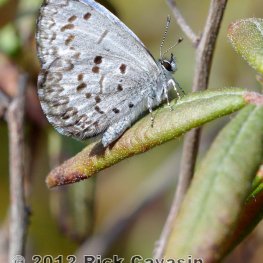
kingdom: Animalia
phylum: Arthropoda
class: Insecta
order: Lepidoptera
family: Lycaenidae
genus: Celastrina
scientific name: Celastrina lucia
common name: Northern Spring Azure
